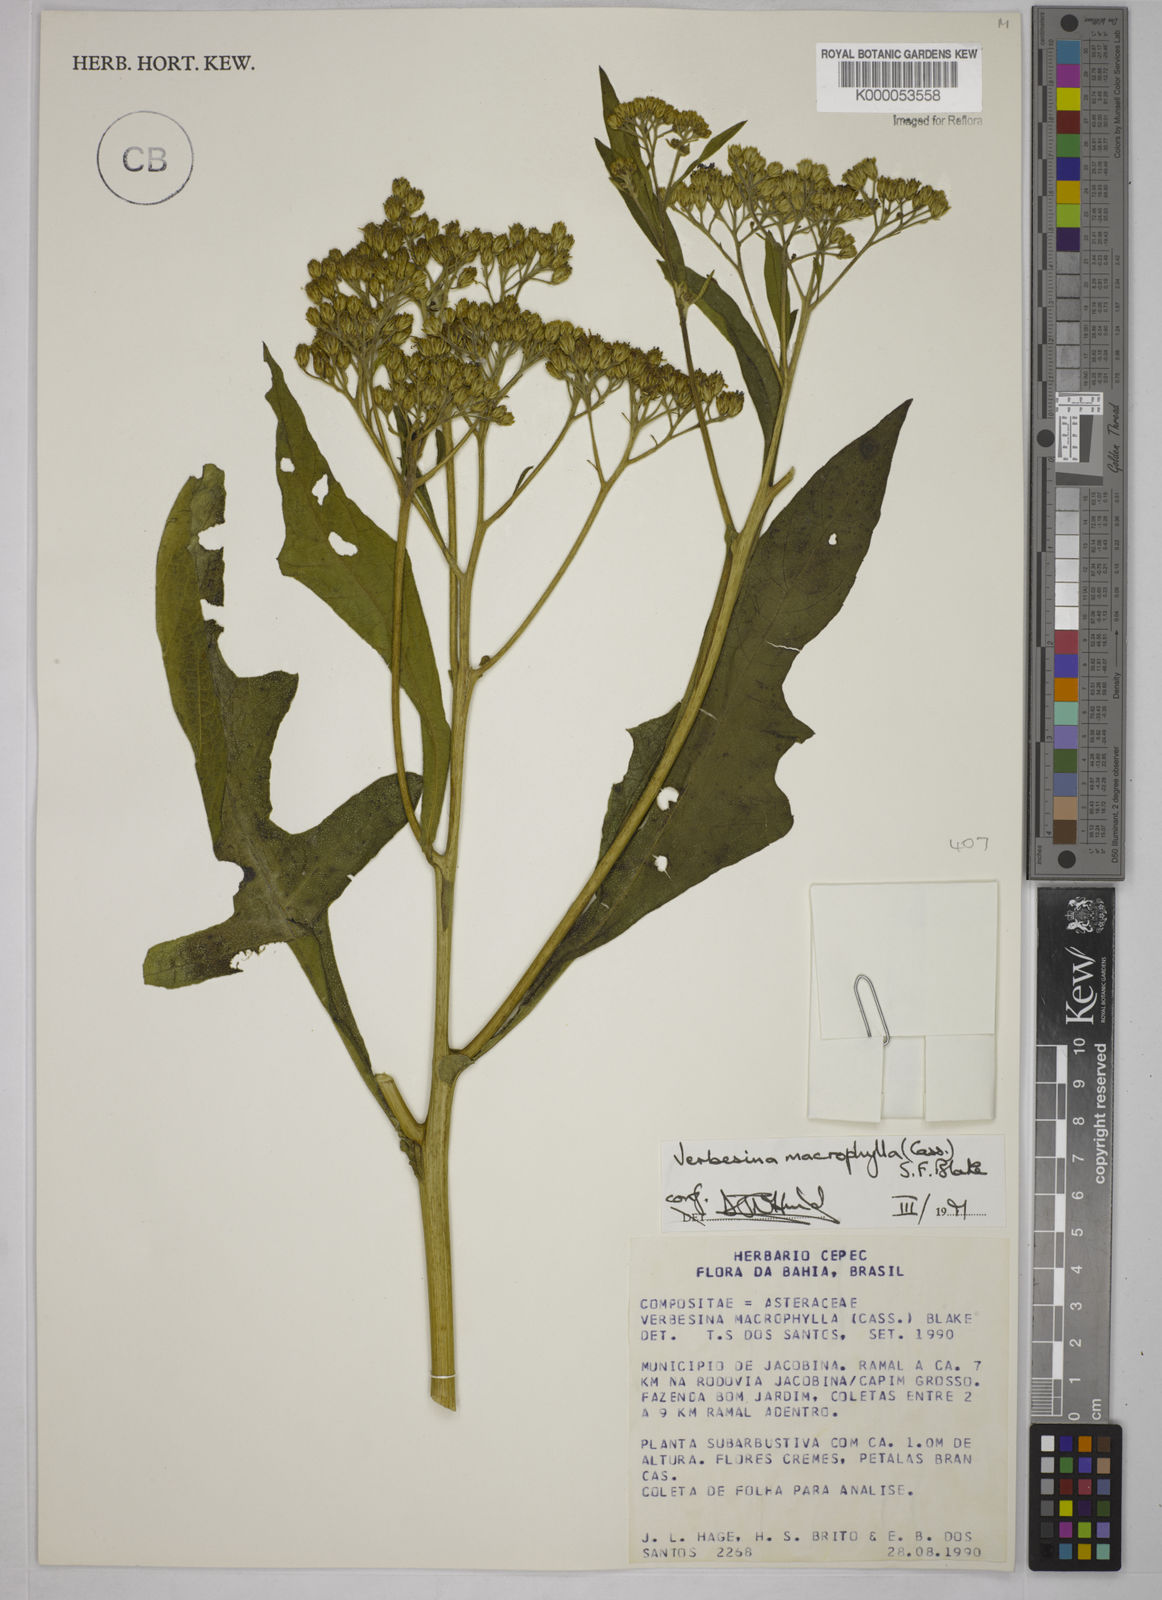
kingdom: Plantae
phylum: Tracheophyta
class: Magnoliopsida
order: Asterales
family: Asteraceae
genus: Verbesina
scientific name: Verbesina macrophylla
